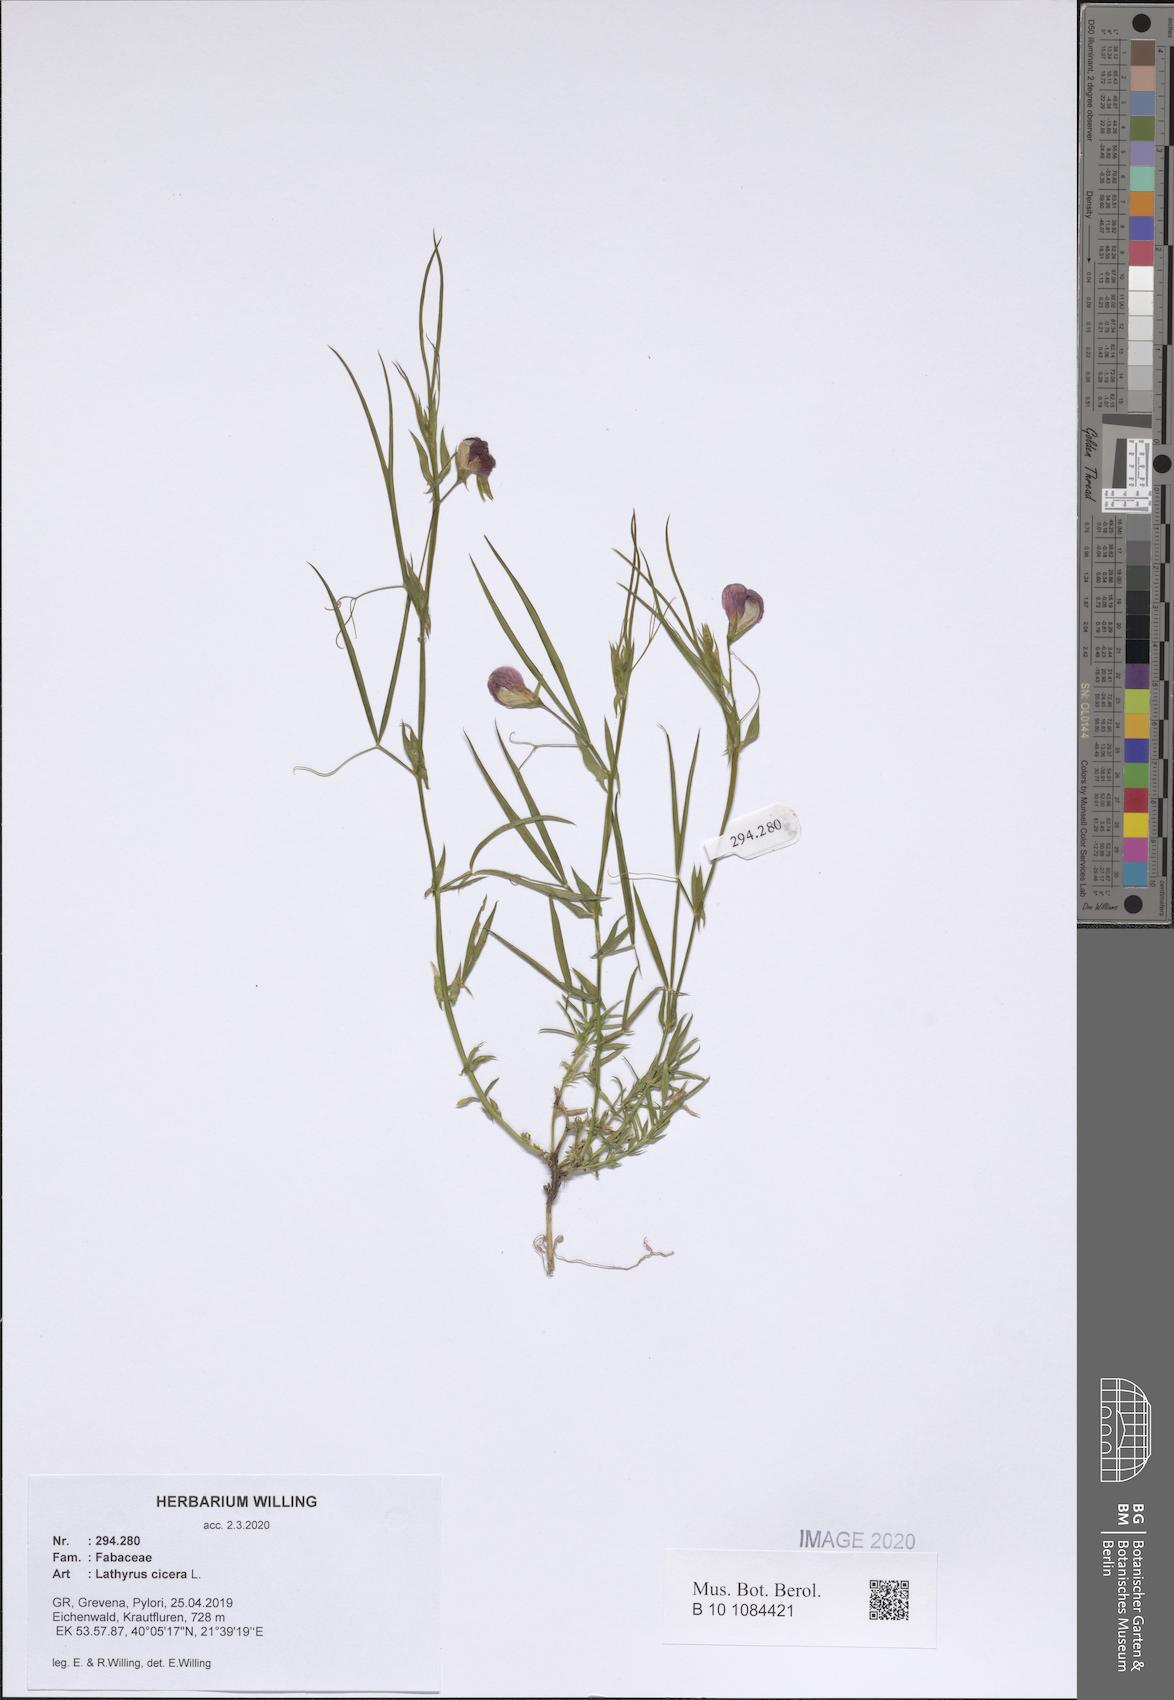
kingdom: Plantae
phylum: Tracheophyta
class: Magnoliopsida
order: Fabales
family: Fabaceae
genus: Lathyrus
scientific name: Lathyrus cicera
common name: Red vetchling
